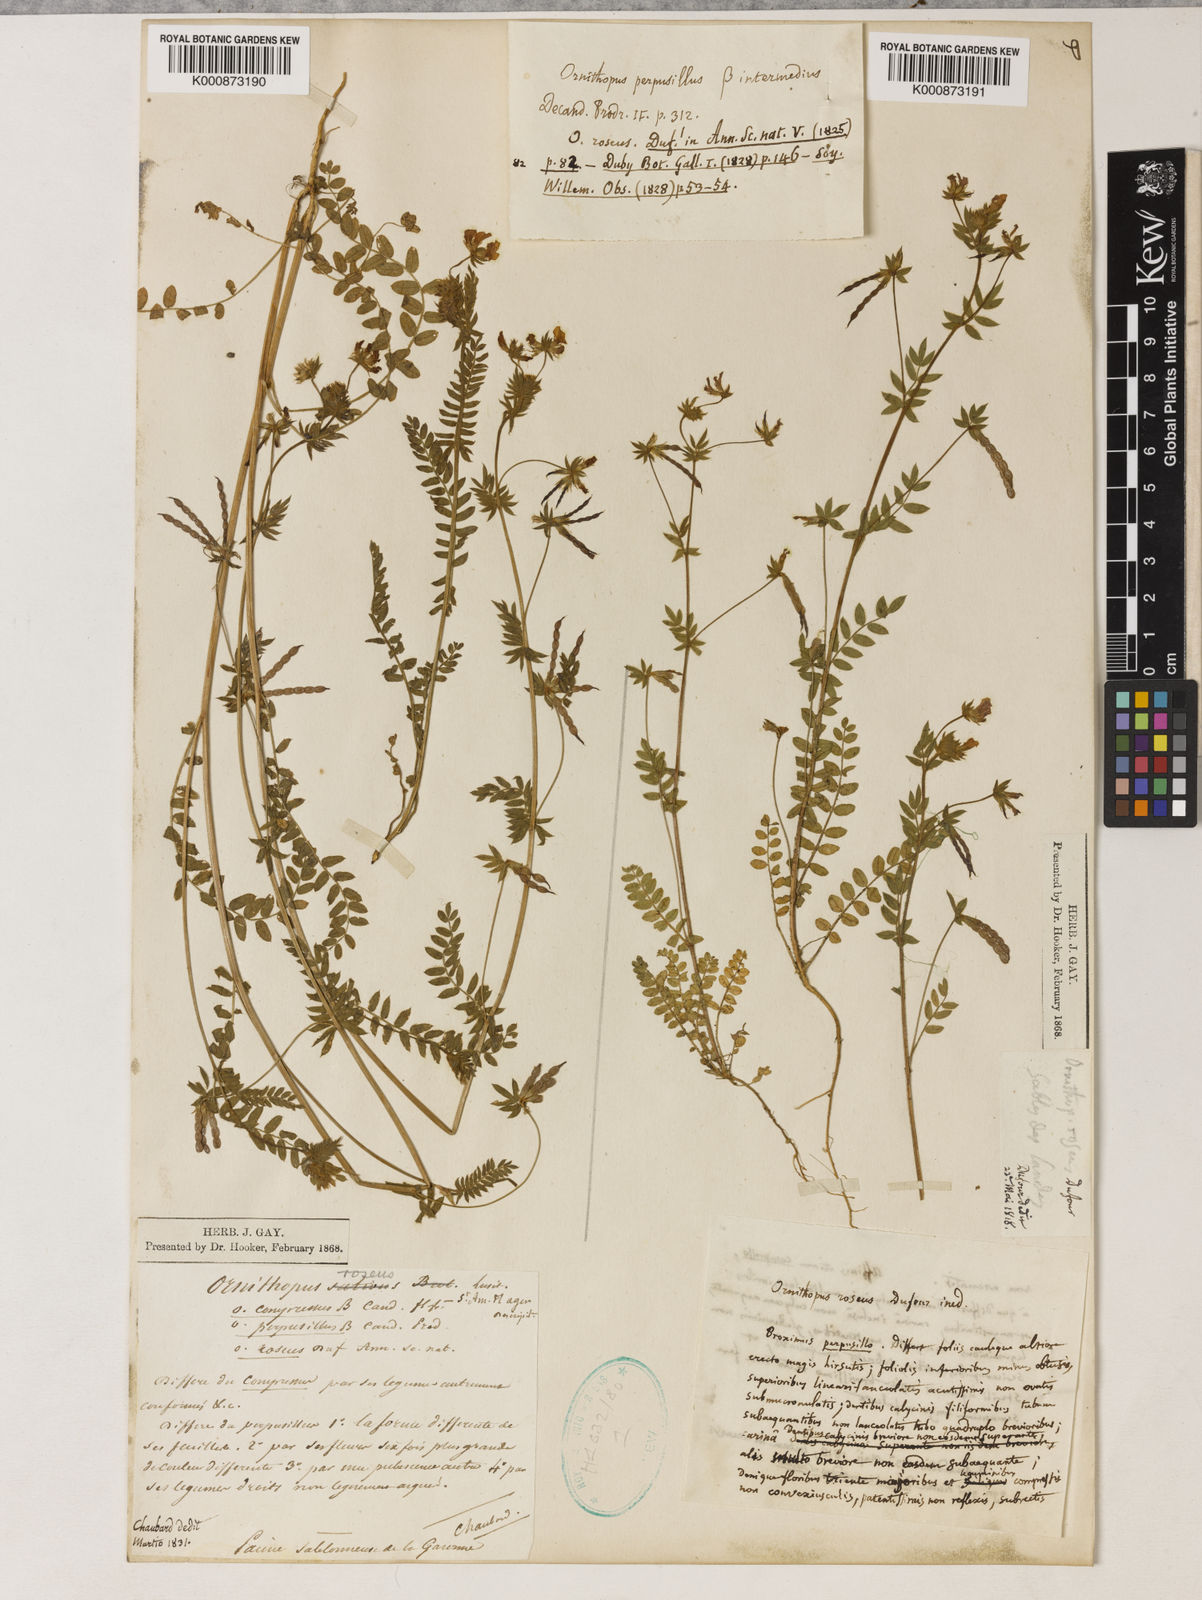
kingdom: Plantae
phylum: Tracheophyta
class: Magnoliopsida
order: Fabales
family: Fabaceae
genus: Ornithopus
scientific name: Ornithopus sativus
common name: Serradella
